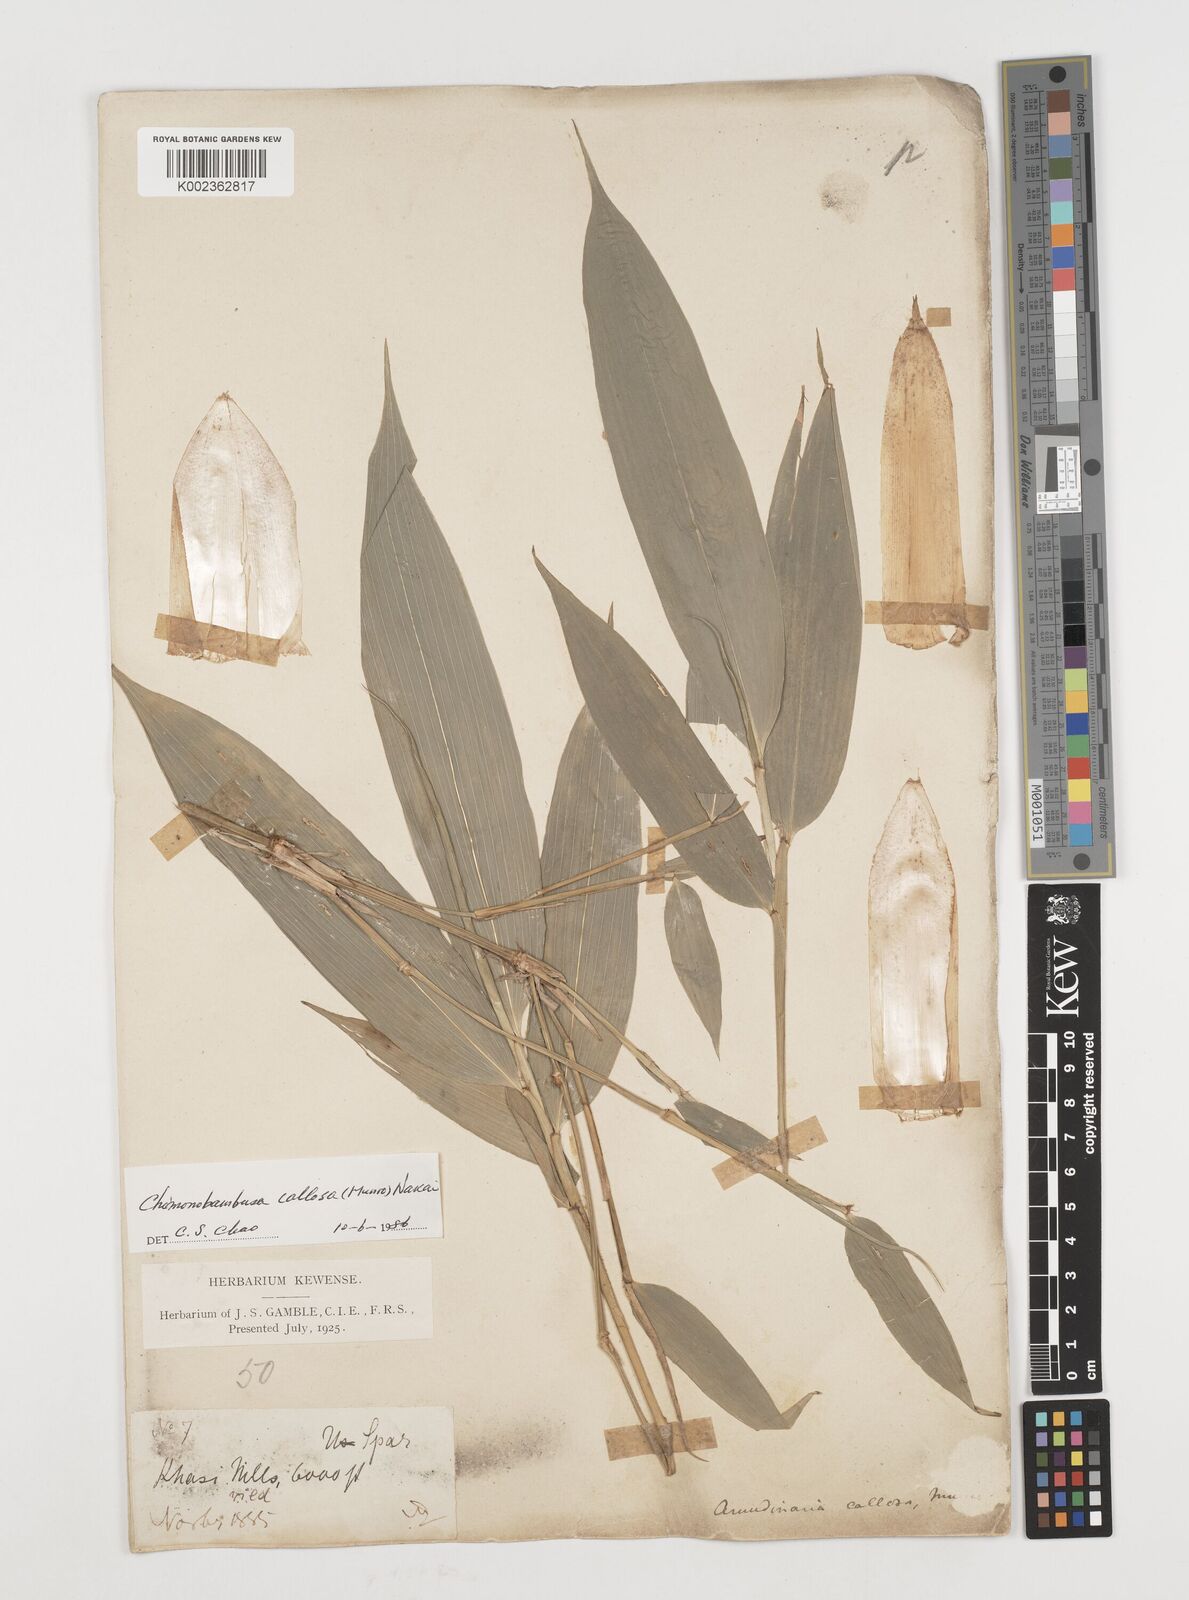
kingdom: Plantae
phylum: Tracheophyta
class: Liliopsida
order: Poales
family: Poaceae
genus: Chimonobambusa
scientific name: Chimonobambusa callosa
